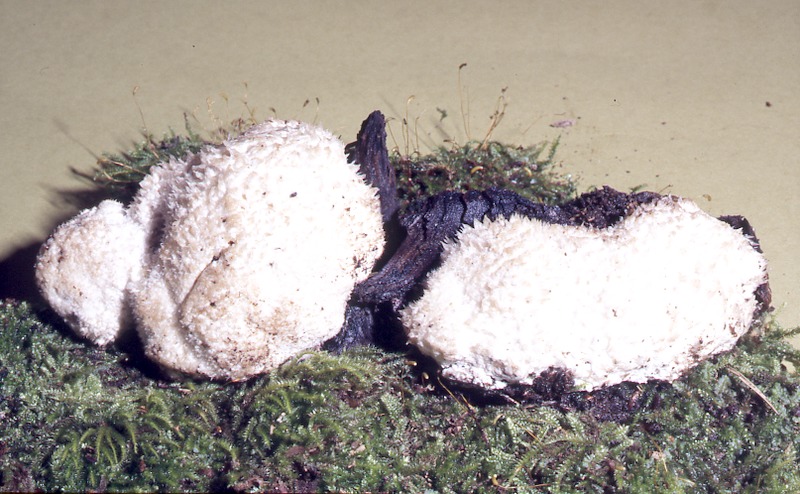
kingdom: Fungi
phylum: Basidiomycota
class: Agaricomycetes
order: Polyporales
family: Dacryobolaceae
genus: Postia
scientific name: Postia ptychogaster
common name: Powderpuff bracket
